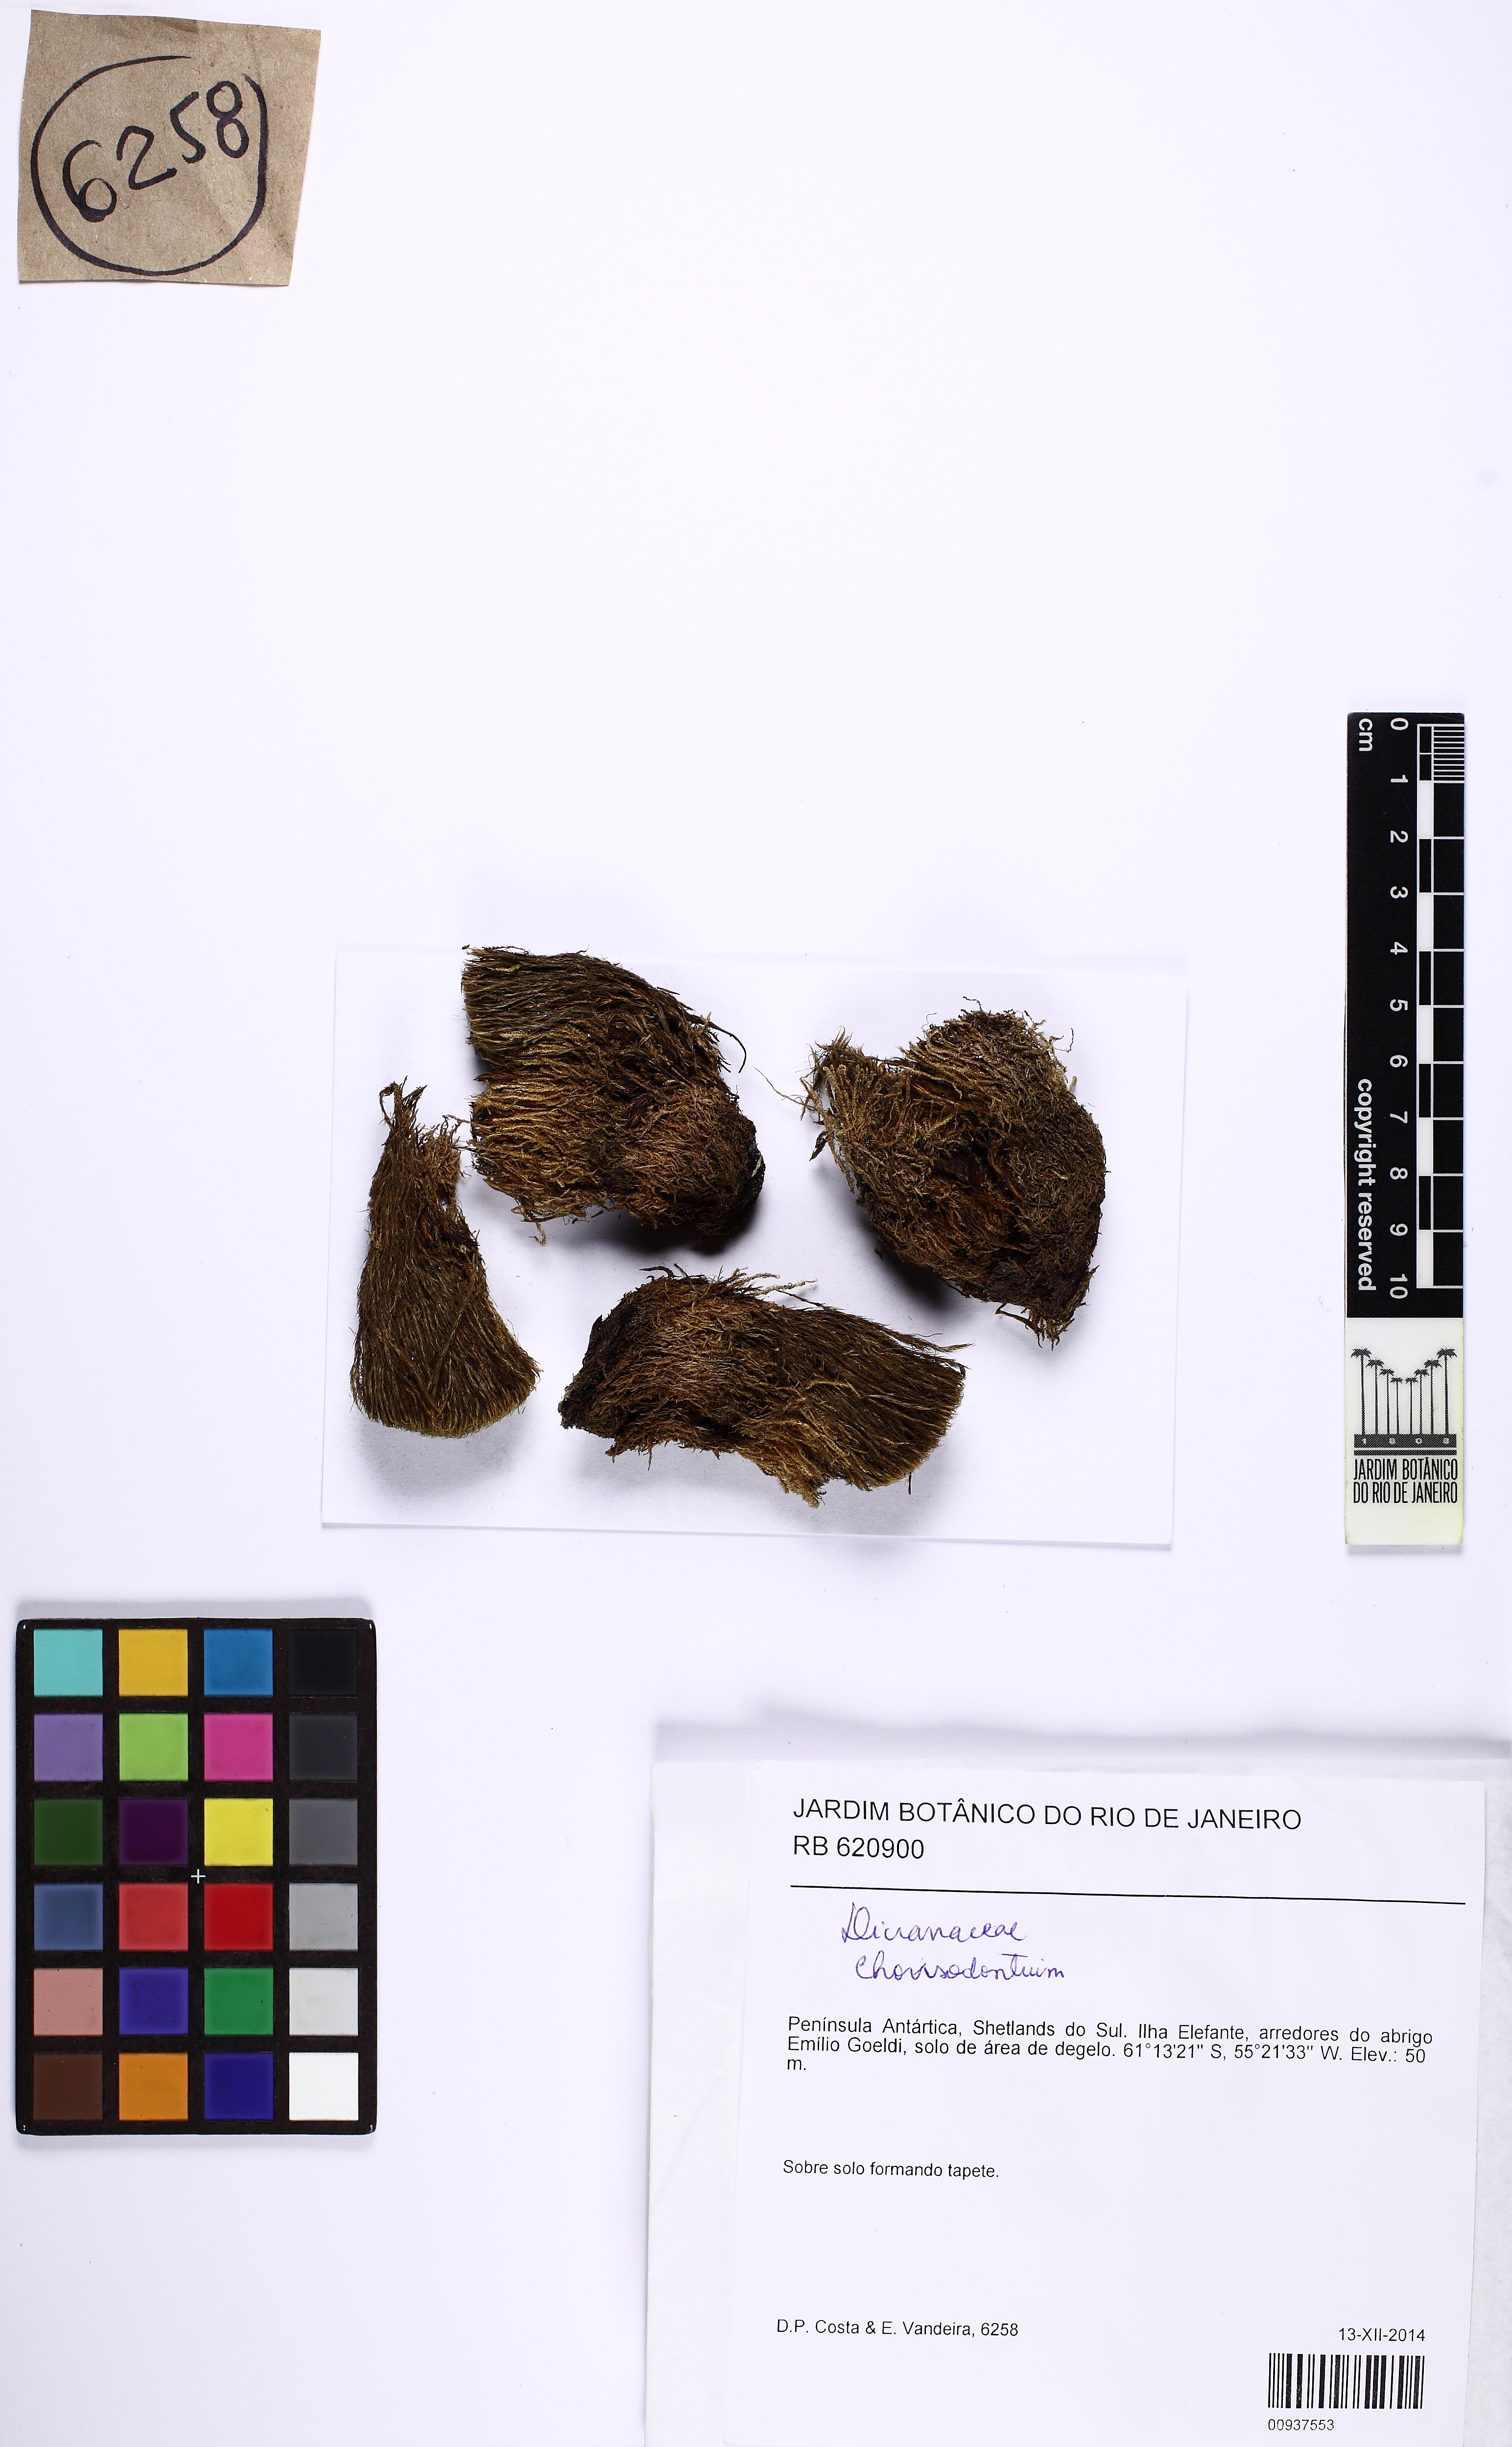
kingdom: Plantae
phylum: Bryophyta
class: Bryopsida
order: Dicranales
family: Dicranaceae
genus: Chorisodontium
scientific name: Chorisodontium
